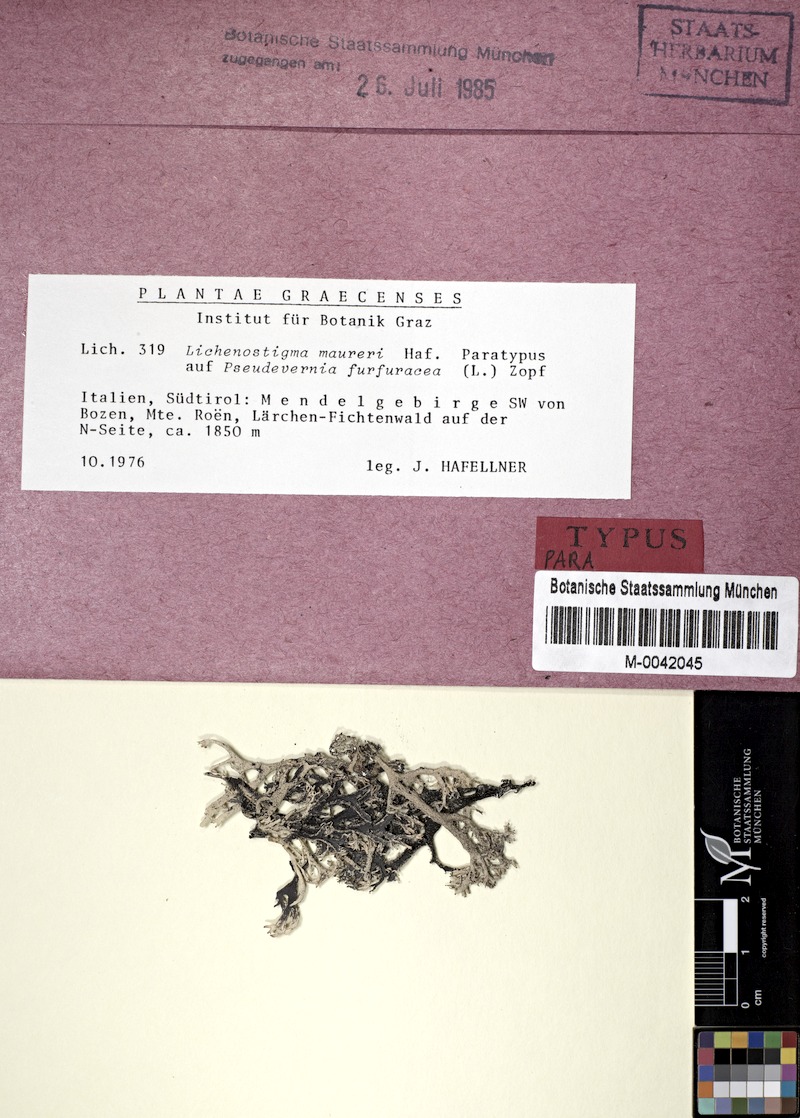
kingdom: Fungi
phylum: Ascomycota
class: Lecanoromycetes
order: Lecanorales
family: Parmeliaceae
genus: Pseudevernia
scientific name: Pseudevernia furfuracea
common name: Tree moss
